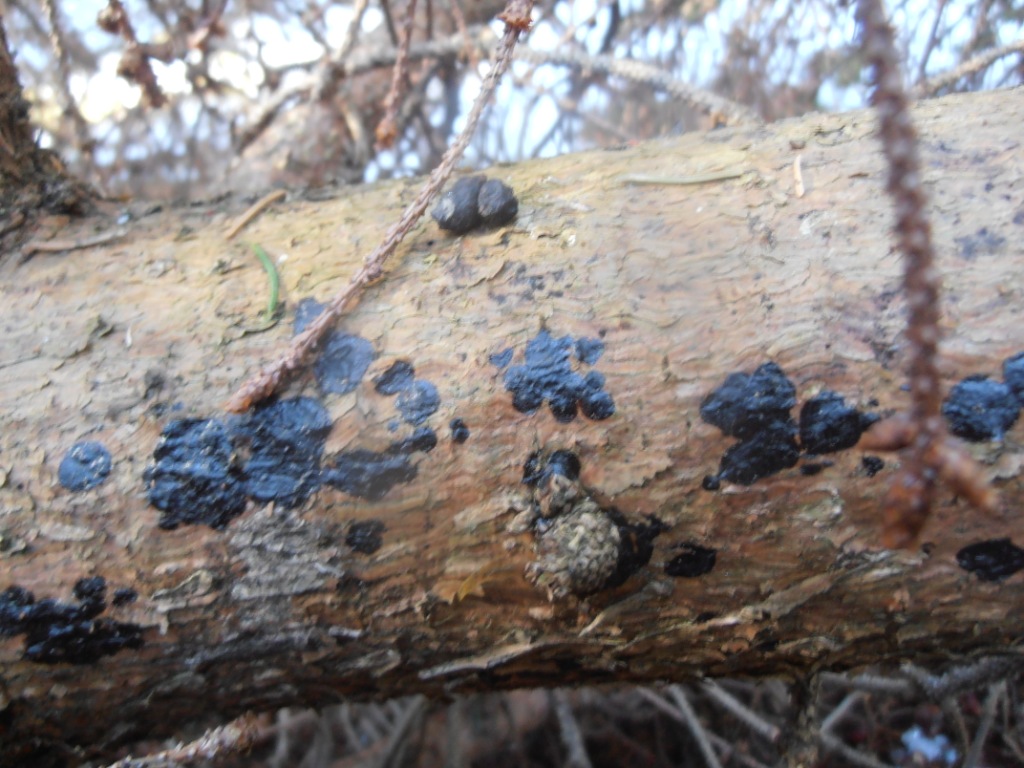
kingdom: Fungi
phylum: Basidiomycota
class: Agaricomycetes
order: Auriculariales
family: Auriculariaceae
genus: Exidia
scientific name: Exidia pithya
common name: gran-bævretop
